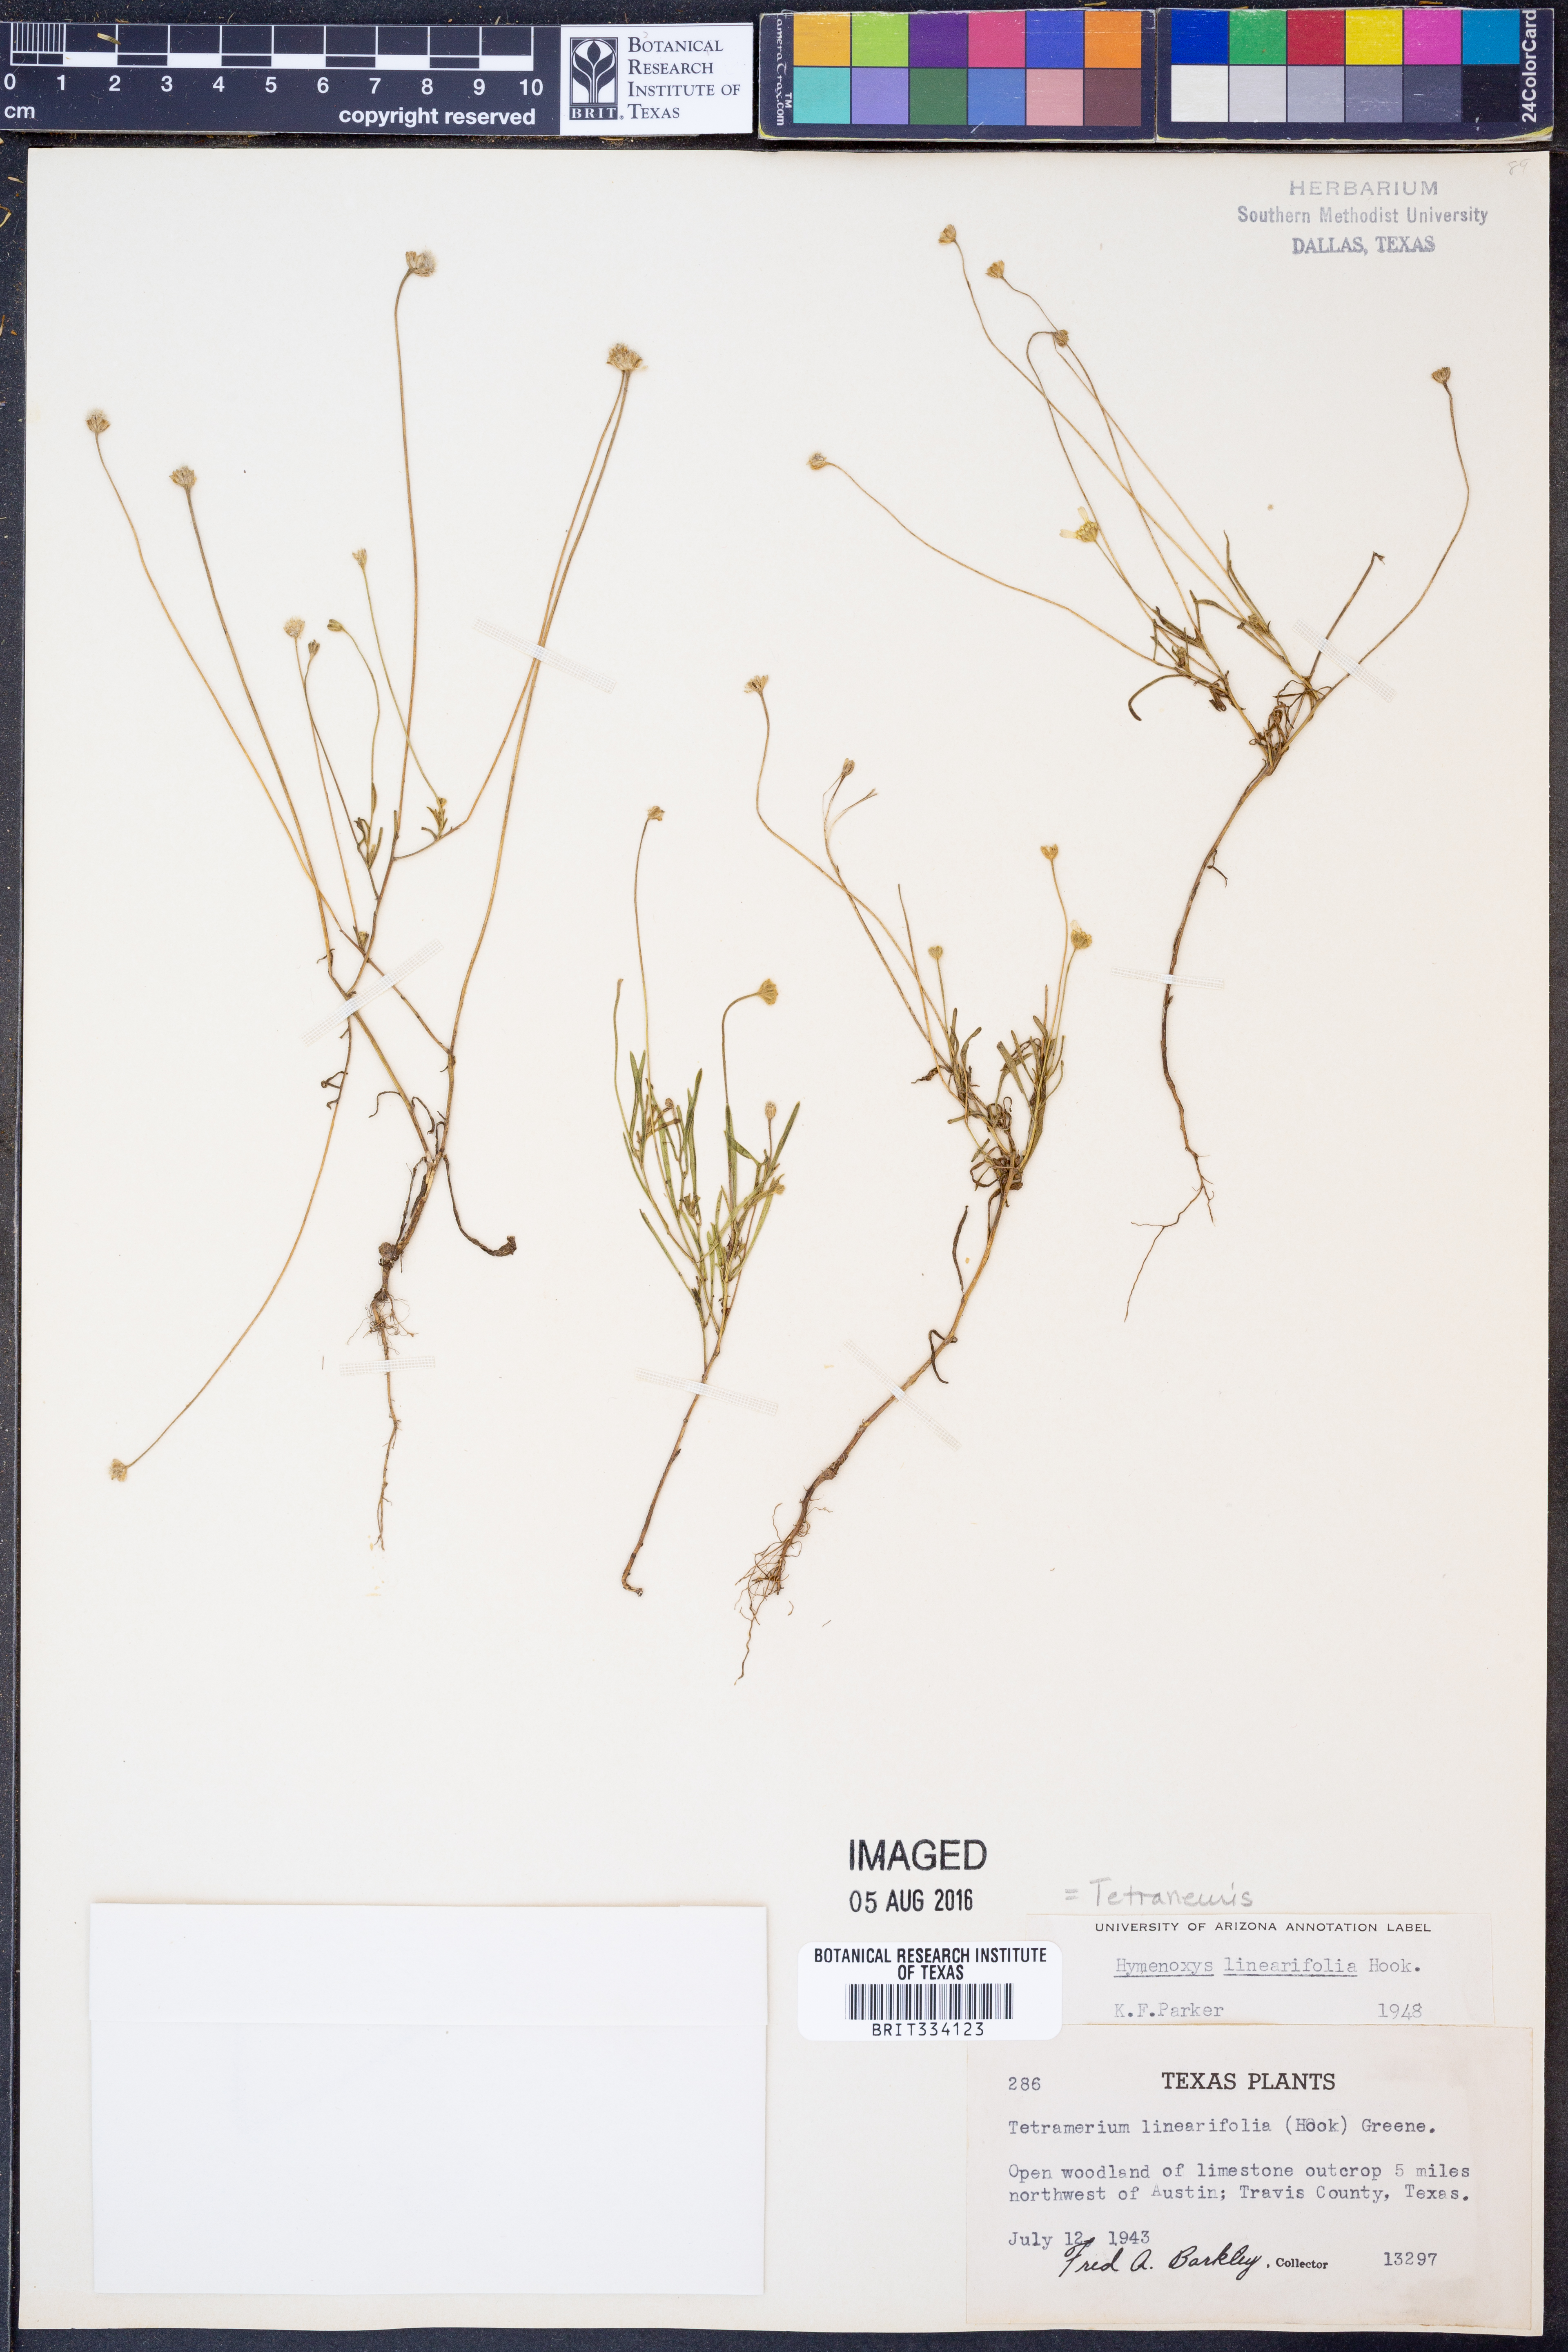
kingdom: Plantae
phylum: Tracheophyta
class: Magnoliopsida
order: Asterales
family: Asteraceae
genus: Tetraneuris
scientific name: Tetraneuris linearifolia
